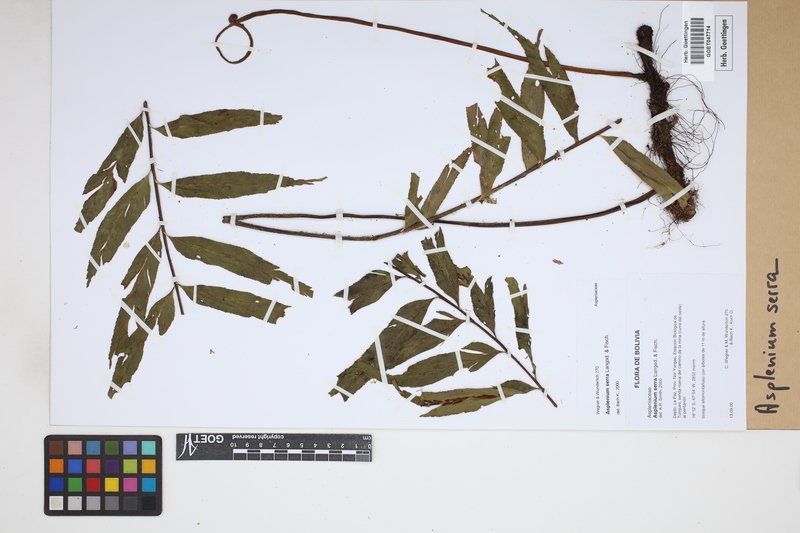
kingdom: Plantae
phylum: Tracheophyta
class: Polypodiopsida
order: Polypodiales
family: Aspleniaceae
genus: Asplenium
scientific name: Asplenium serra
